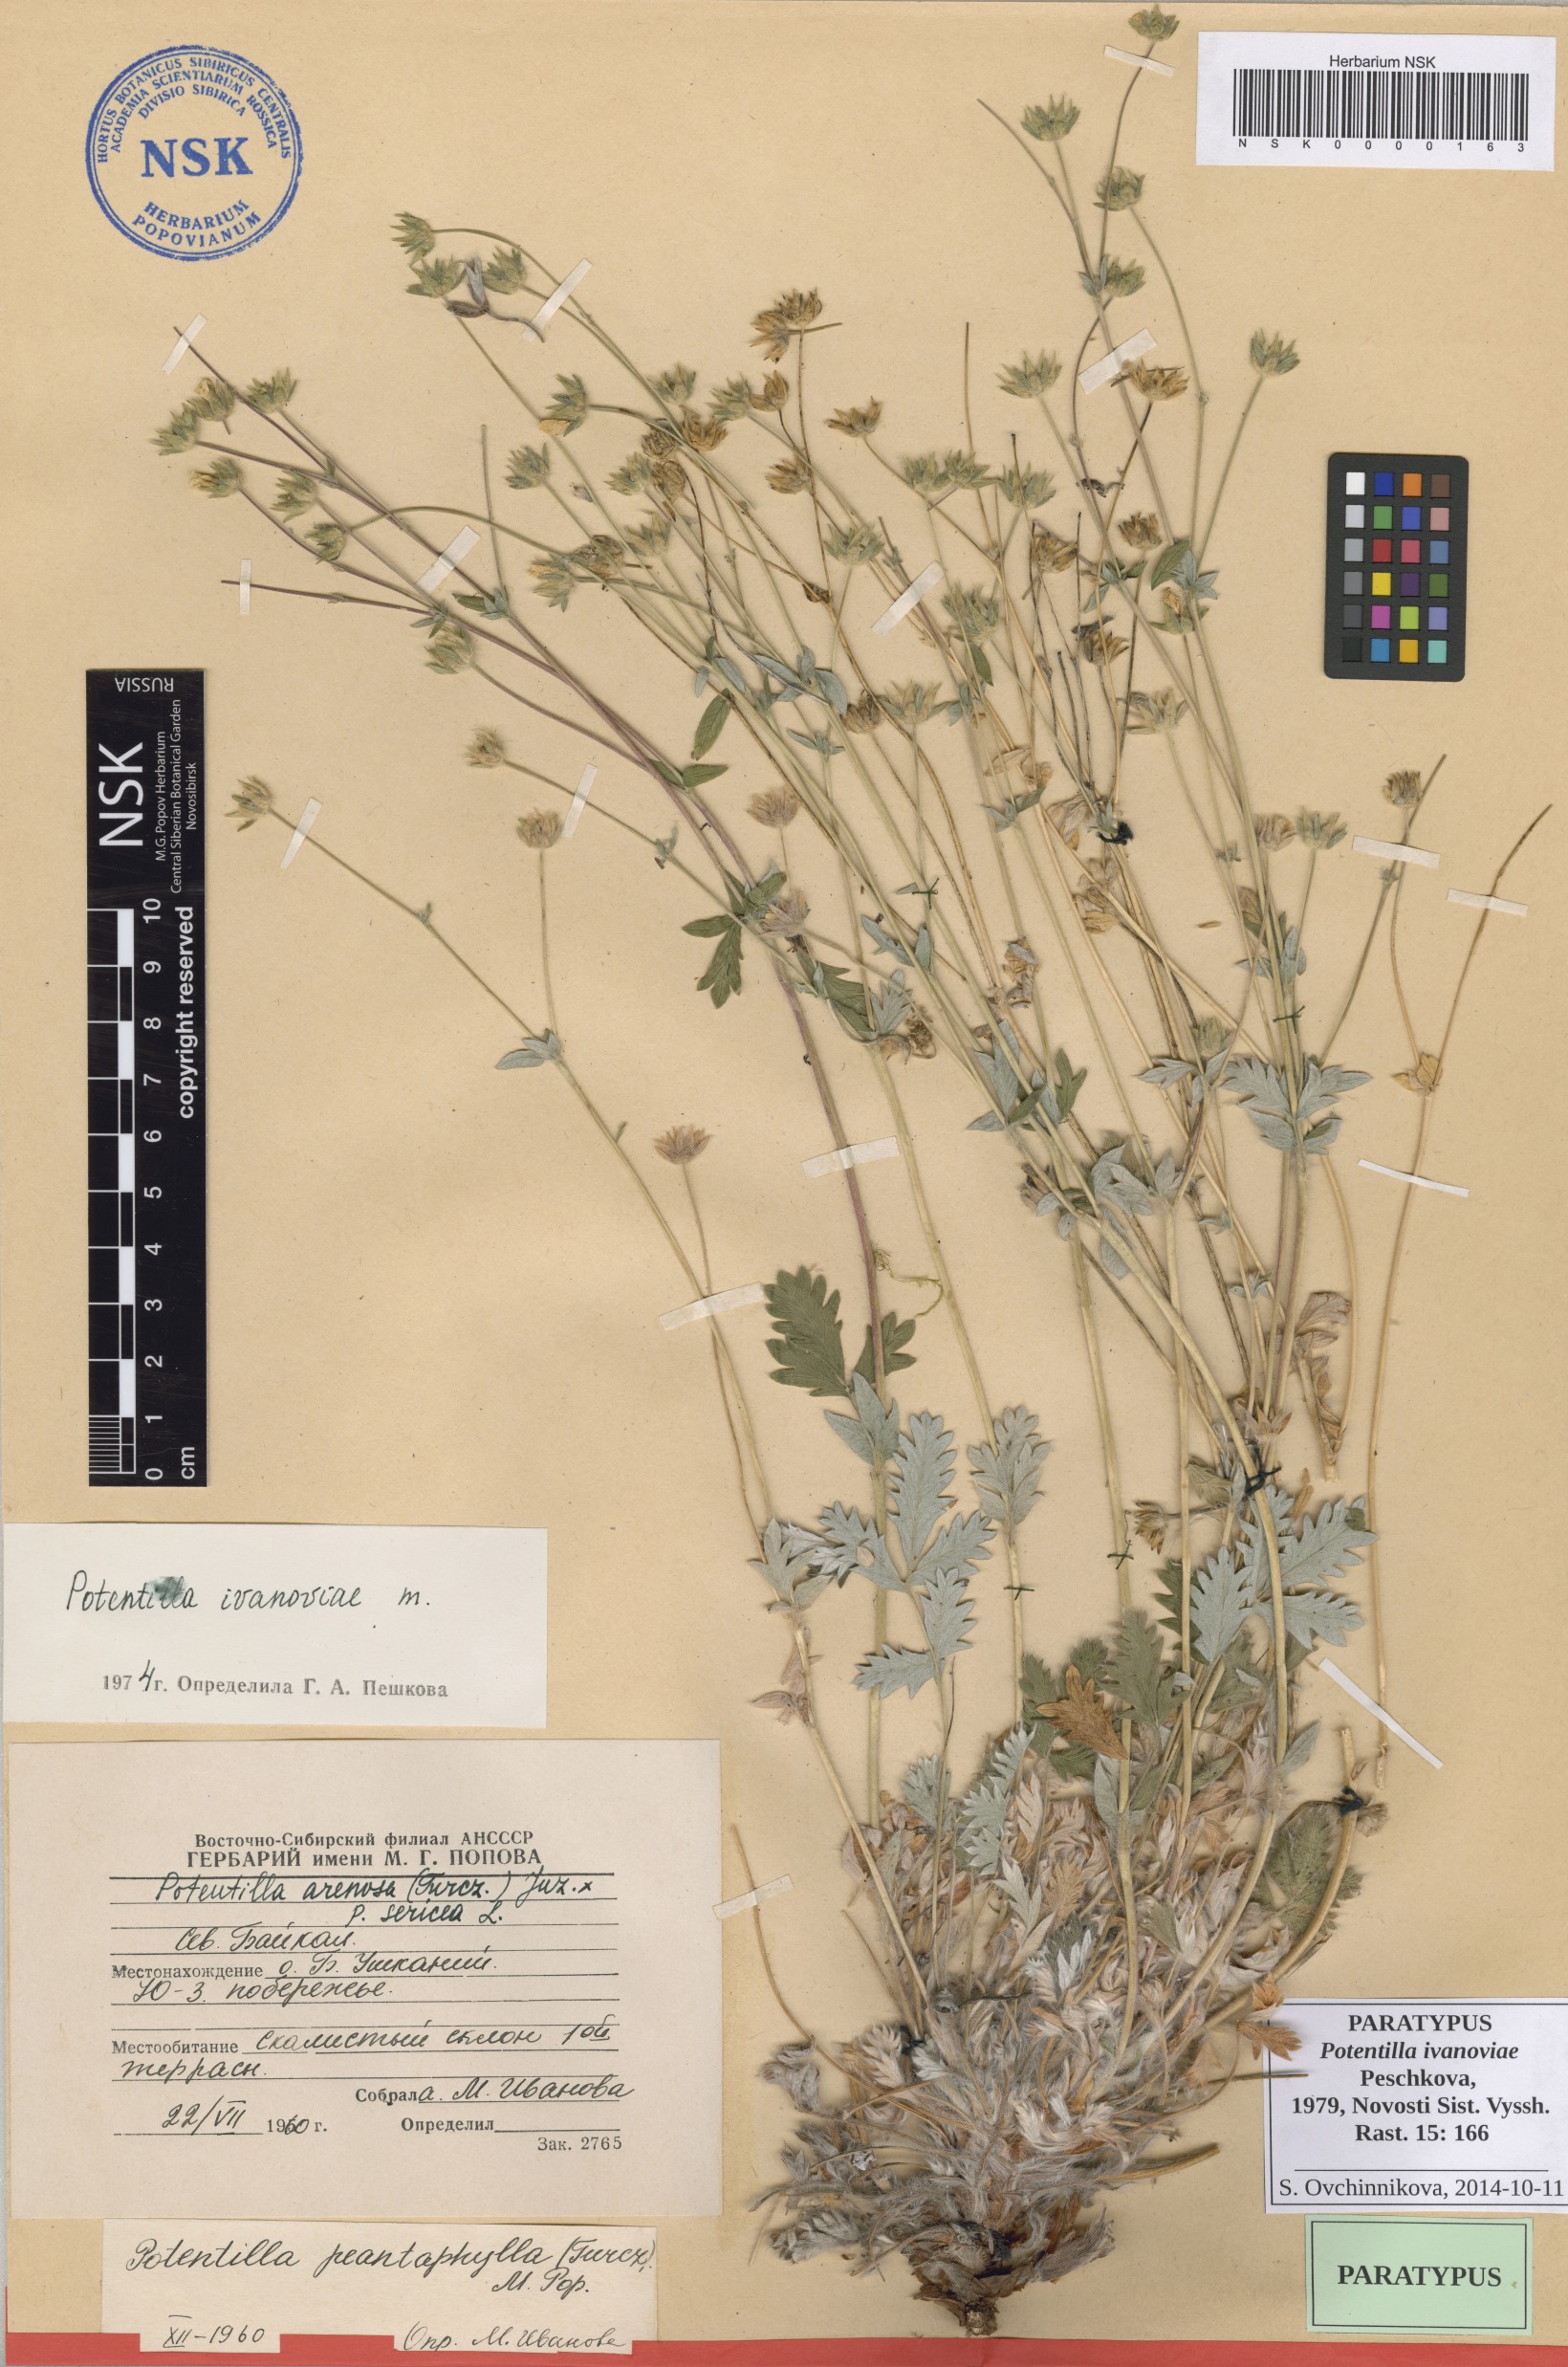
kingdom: Plantae
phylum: Tracheophyta
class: Magnoliopsida
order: Rosales
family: Rosaceae
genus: Potentilla
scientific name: Potentilla ivanoviae
